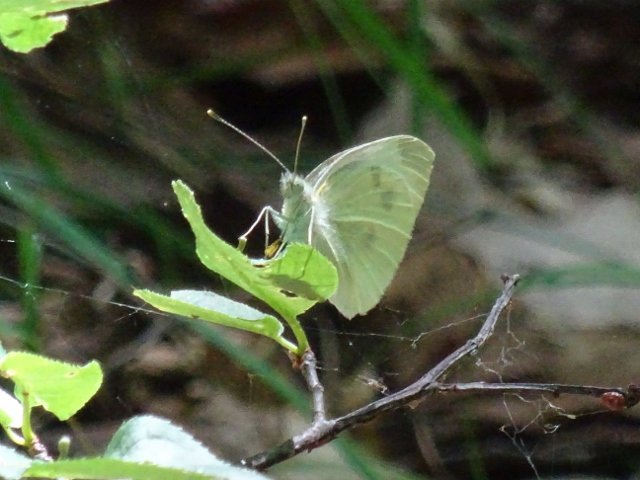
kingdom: Animalia
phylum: Arthropoda
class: Insecta
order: Lepidoptera
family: Pieridae
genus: Pieris
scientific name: Pieris rapae
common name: Cabbage White
